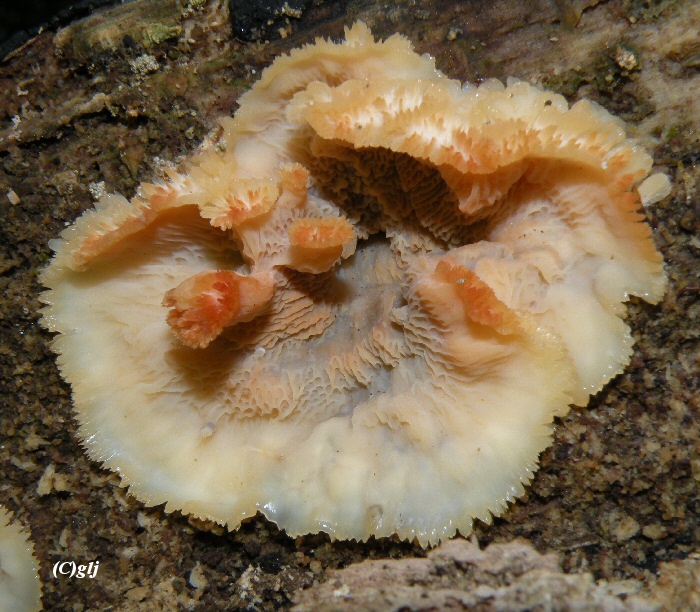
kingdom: Fungi
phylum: Basidiomycota
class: Agaricomycetes
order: Polyporales
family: Meruliaceae
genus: Phlebia
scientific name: Phlebia tremellosa
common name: bævrende åresvamp
